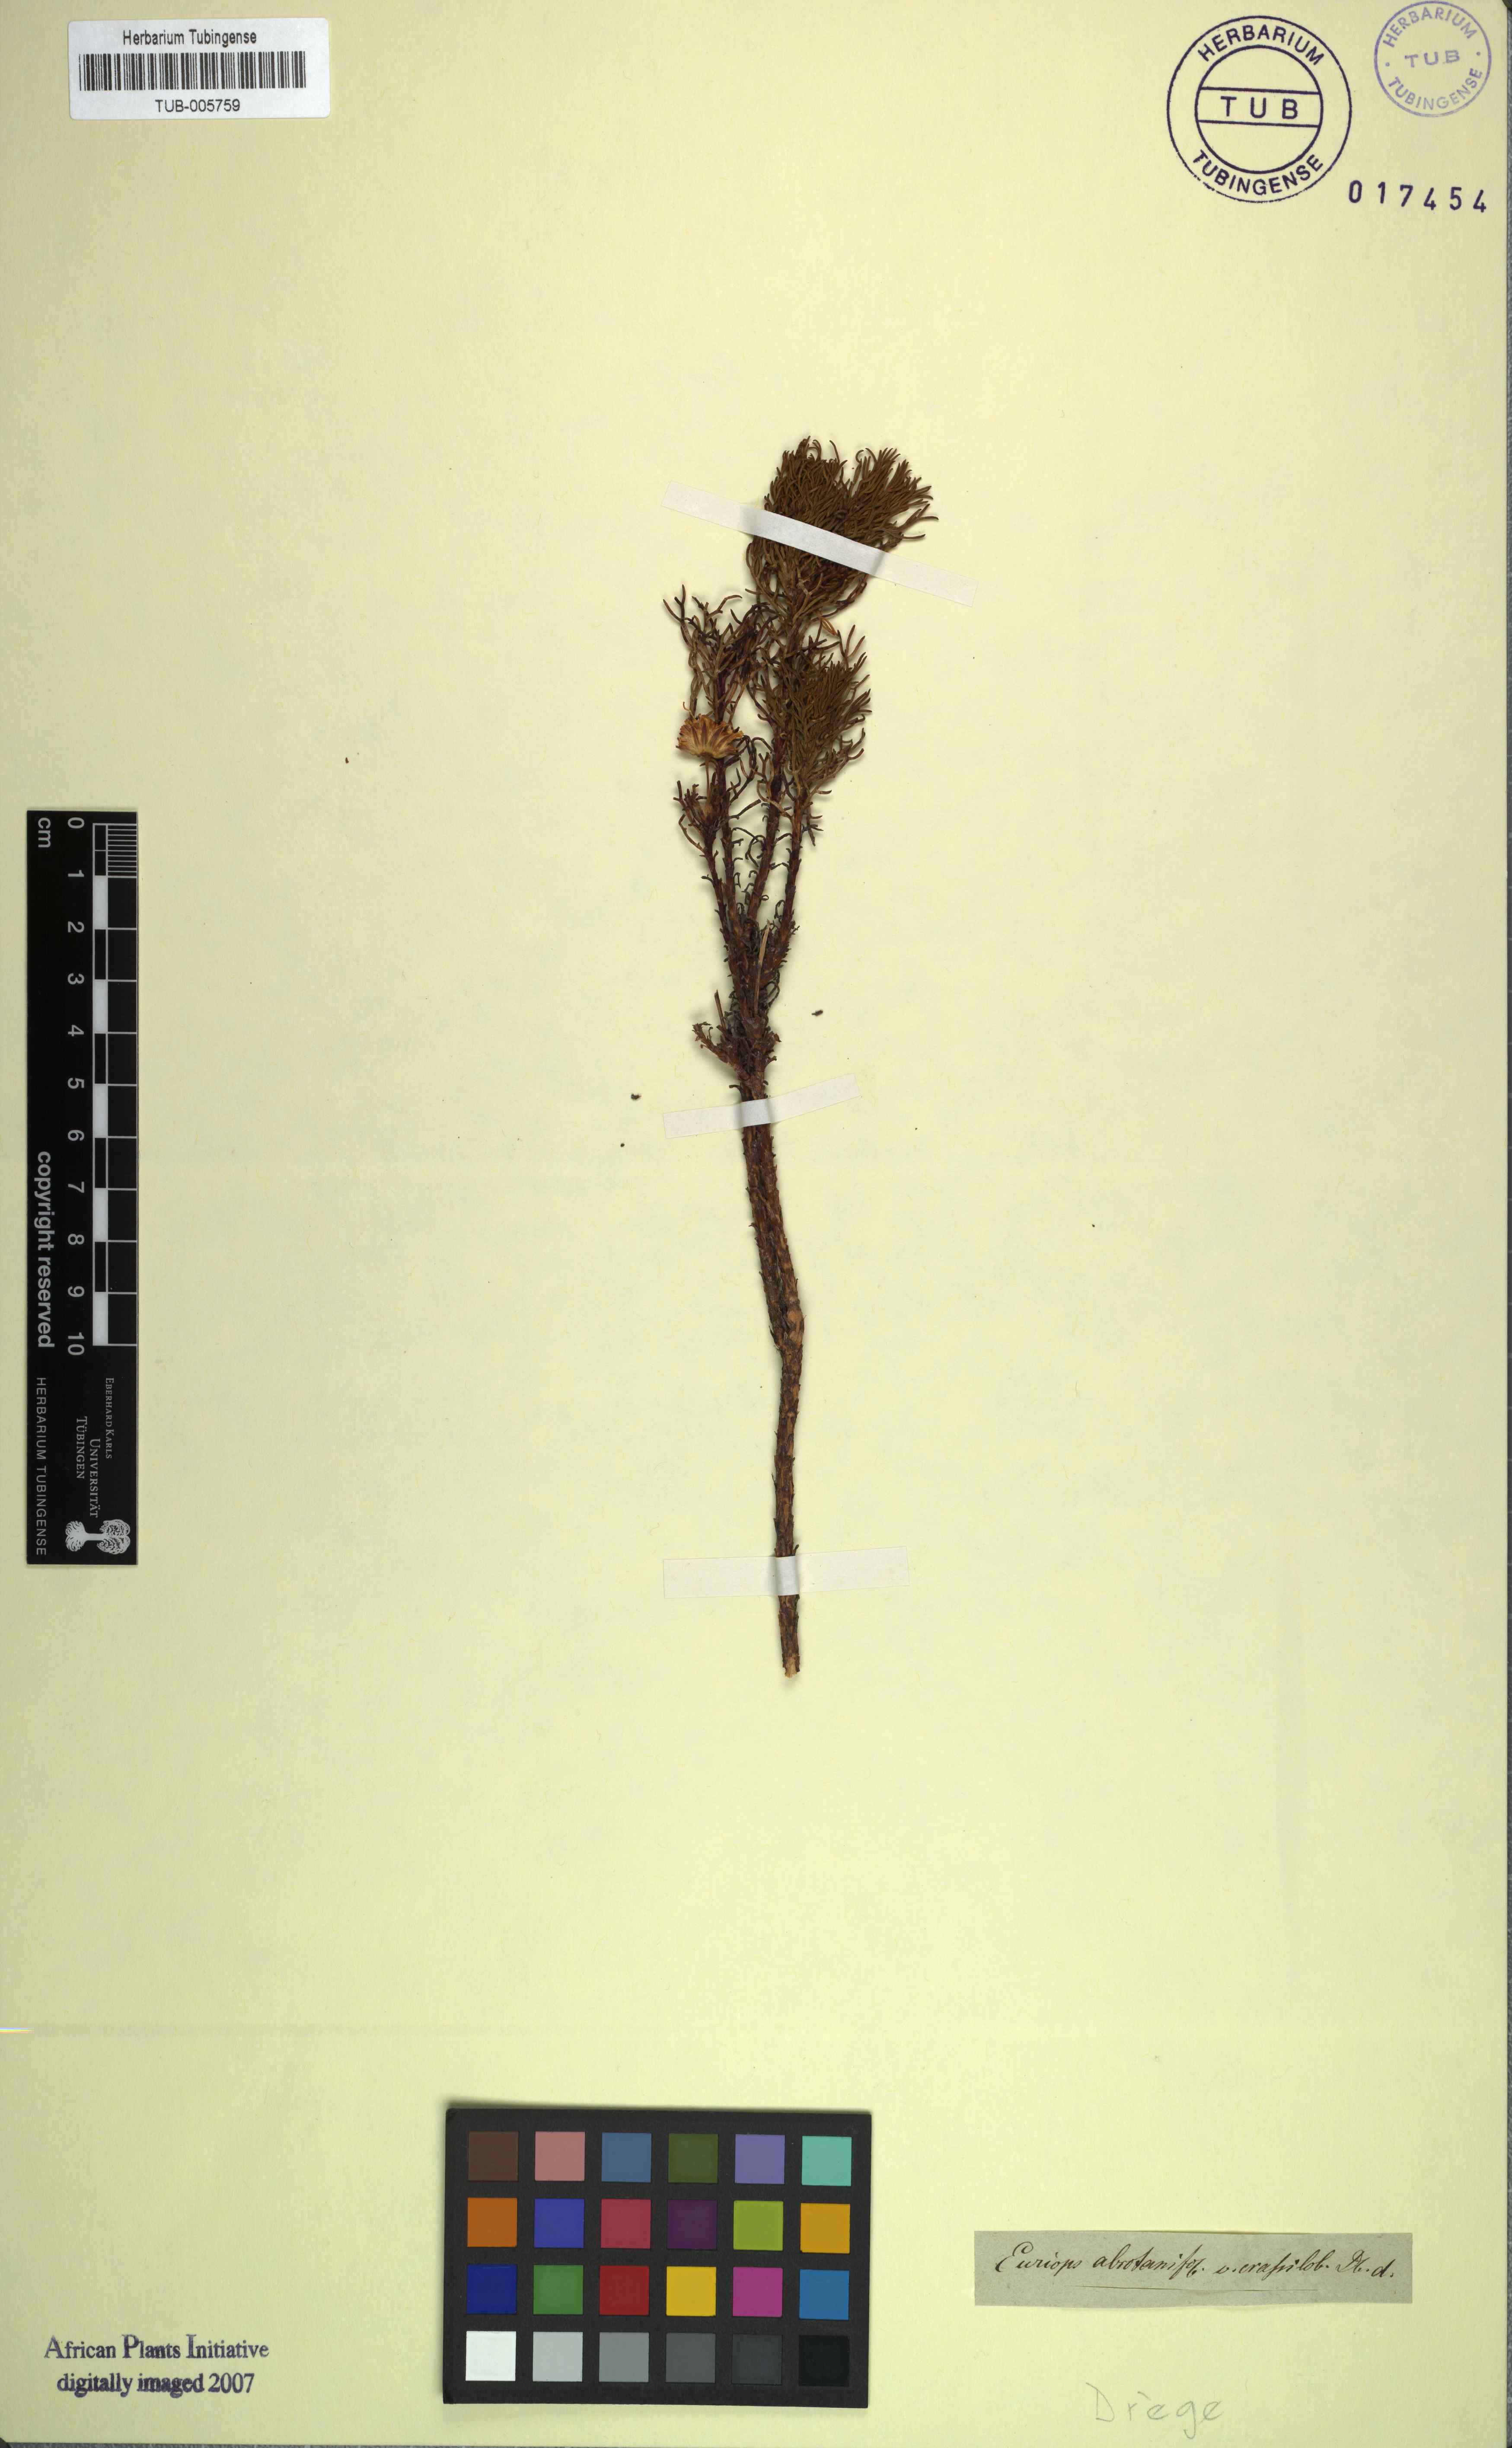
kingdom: Plantae
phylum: Tracheophyta
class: Magnoliopsida
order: Asterales
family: Asteraceae
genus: Euryops
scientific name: Euryops abrotanifolius
